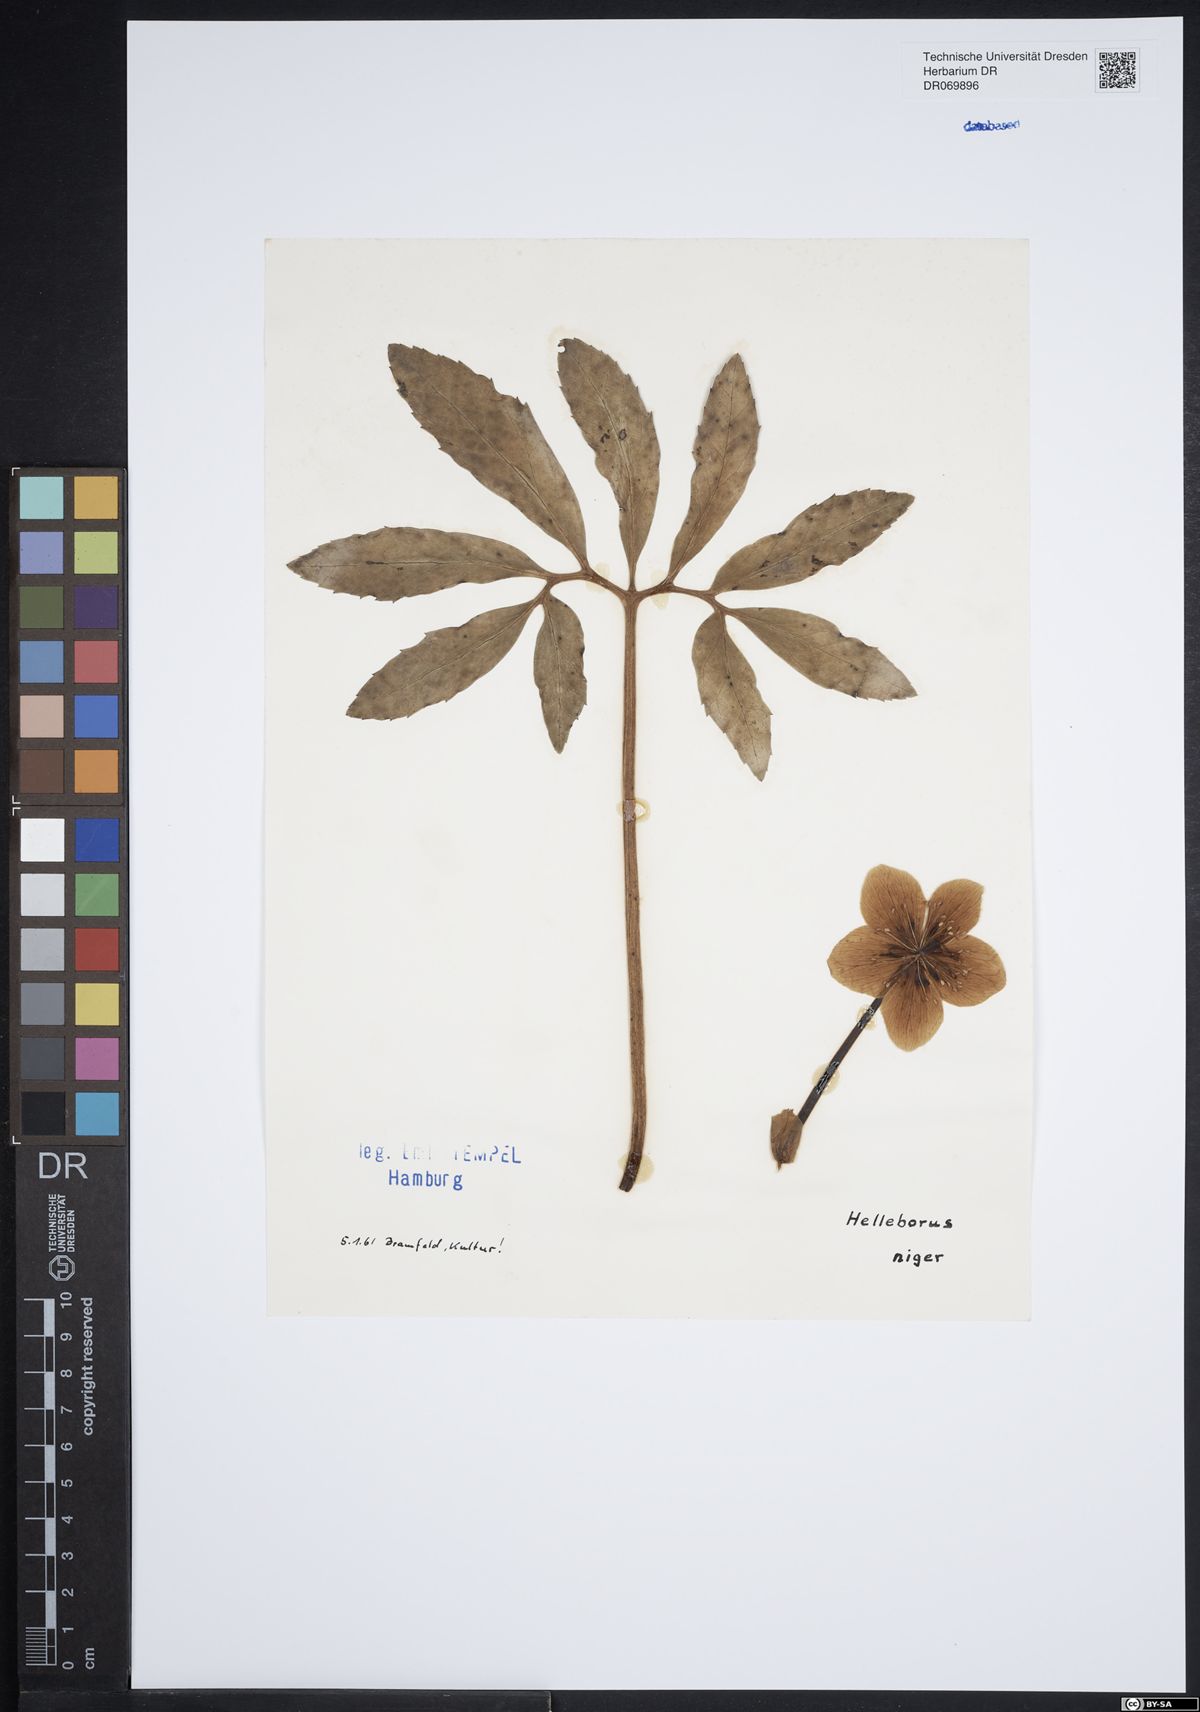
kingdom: Plantae
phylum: Tracheophyta
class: Magnoliopsida
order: Ranunculales
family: Ranunculaceae
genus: Helleborus
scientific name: Helleborus niger
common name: Black hellebore
